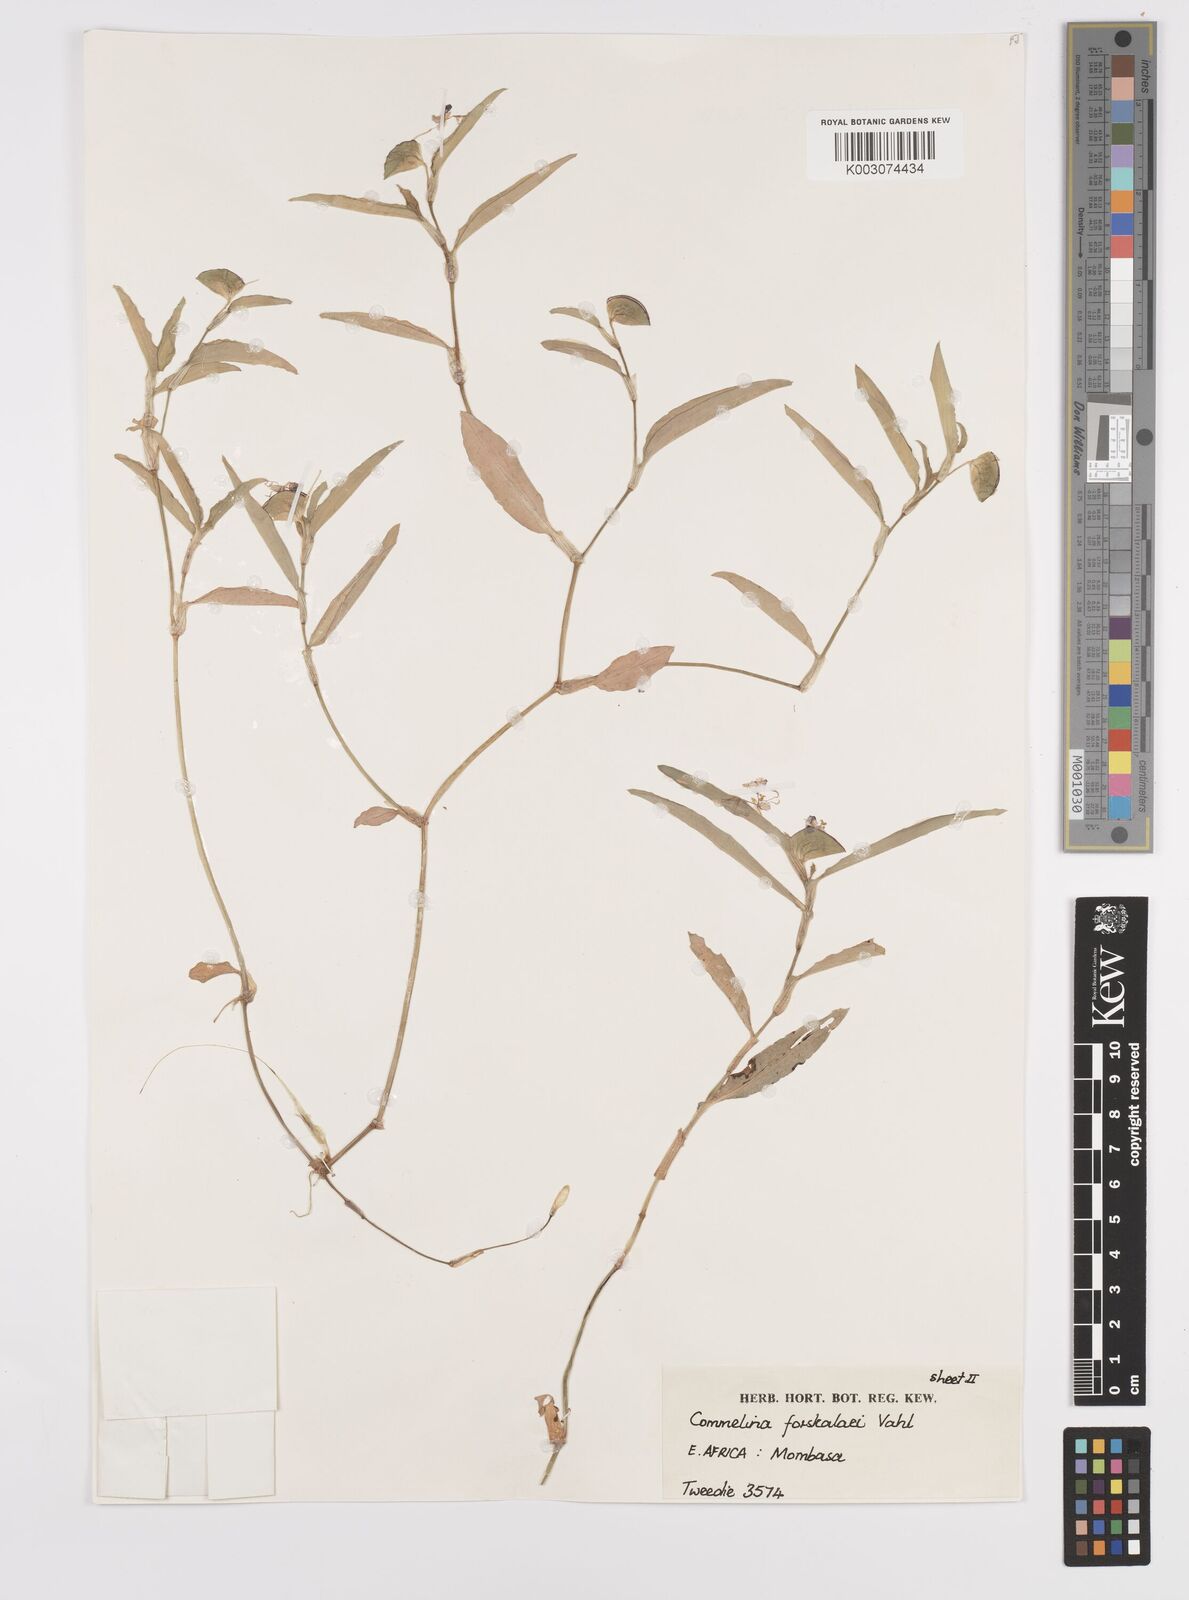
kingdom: Plantae
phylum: Tracheophyta
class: Liliopsida
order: Commelinales
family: Commelinaceae
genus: Commelina
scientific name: Commelina forskaolii
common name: Rat's ear
